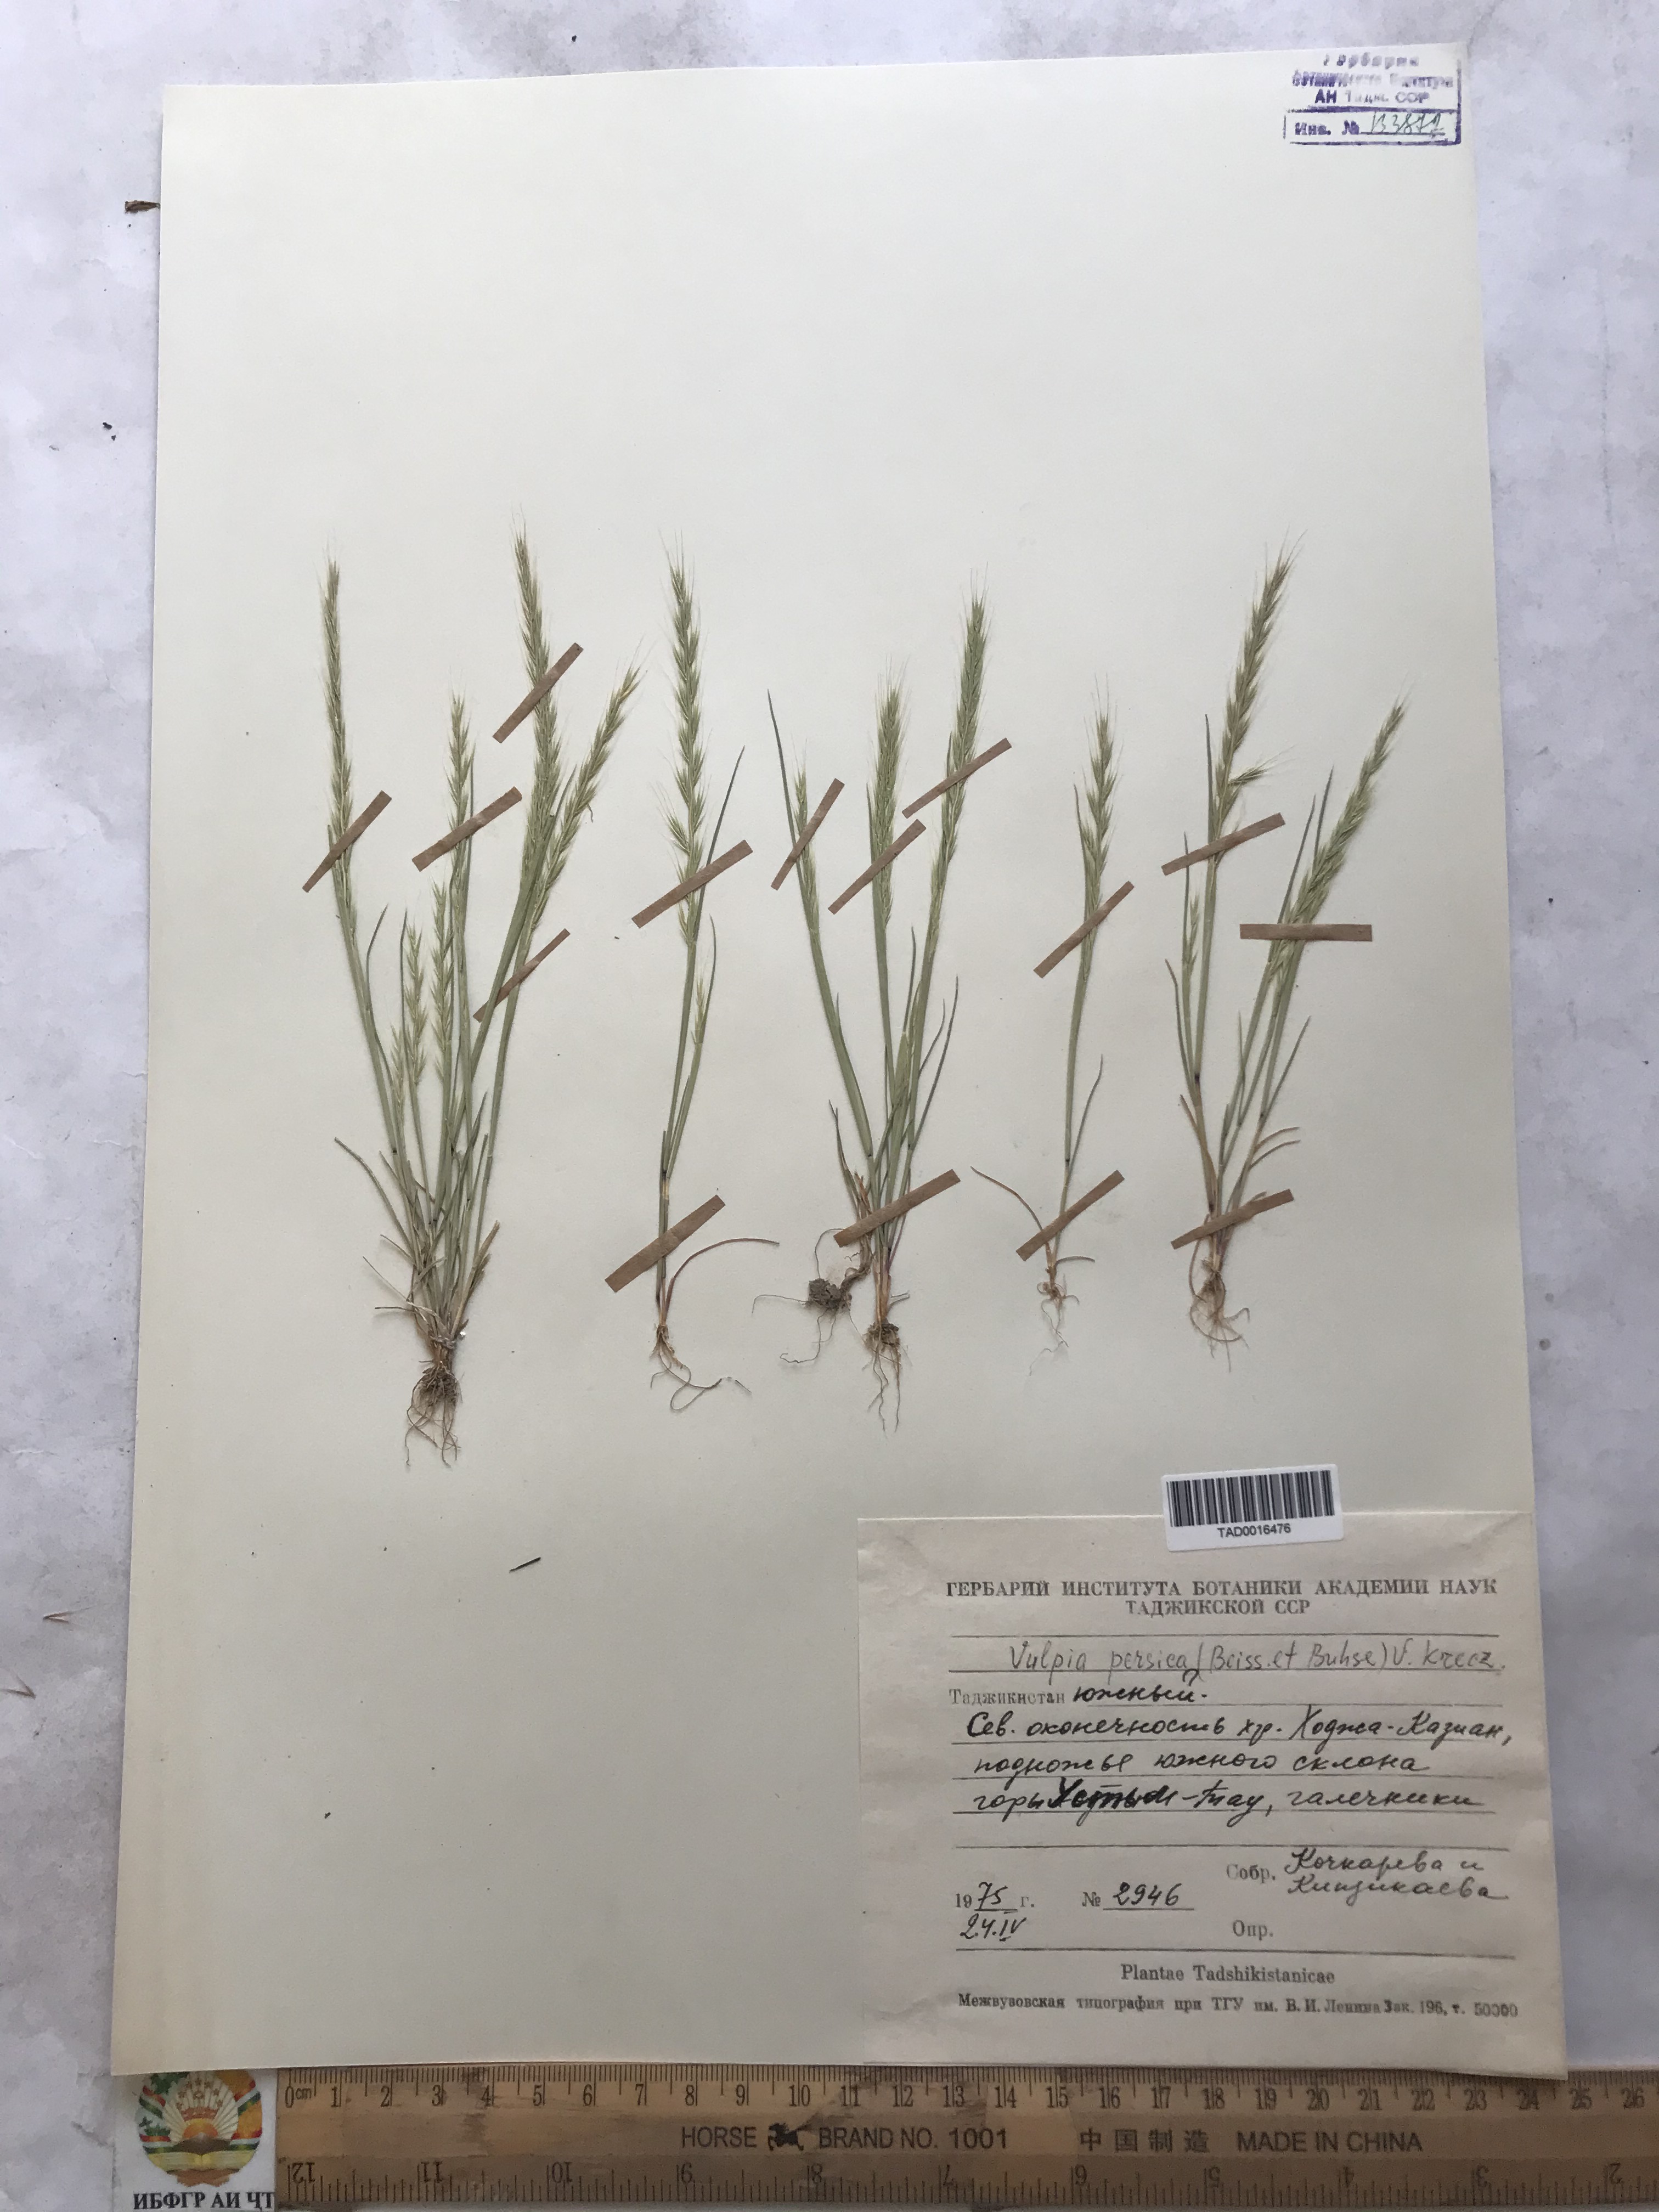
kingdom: Plantae
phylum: Tracheophyta
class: Liliopsida
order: Poales
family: Poaceae
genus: Festuca
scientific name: Festuca Vulpia persica
